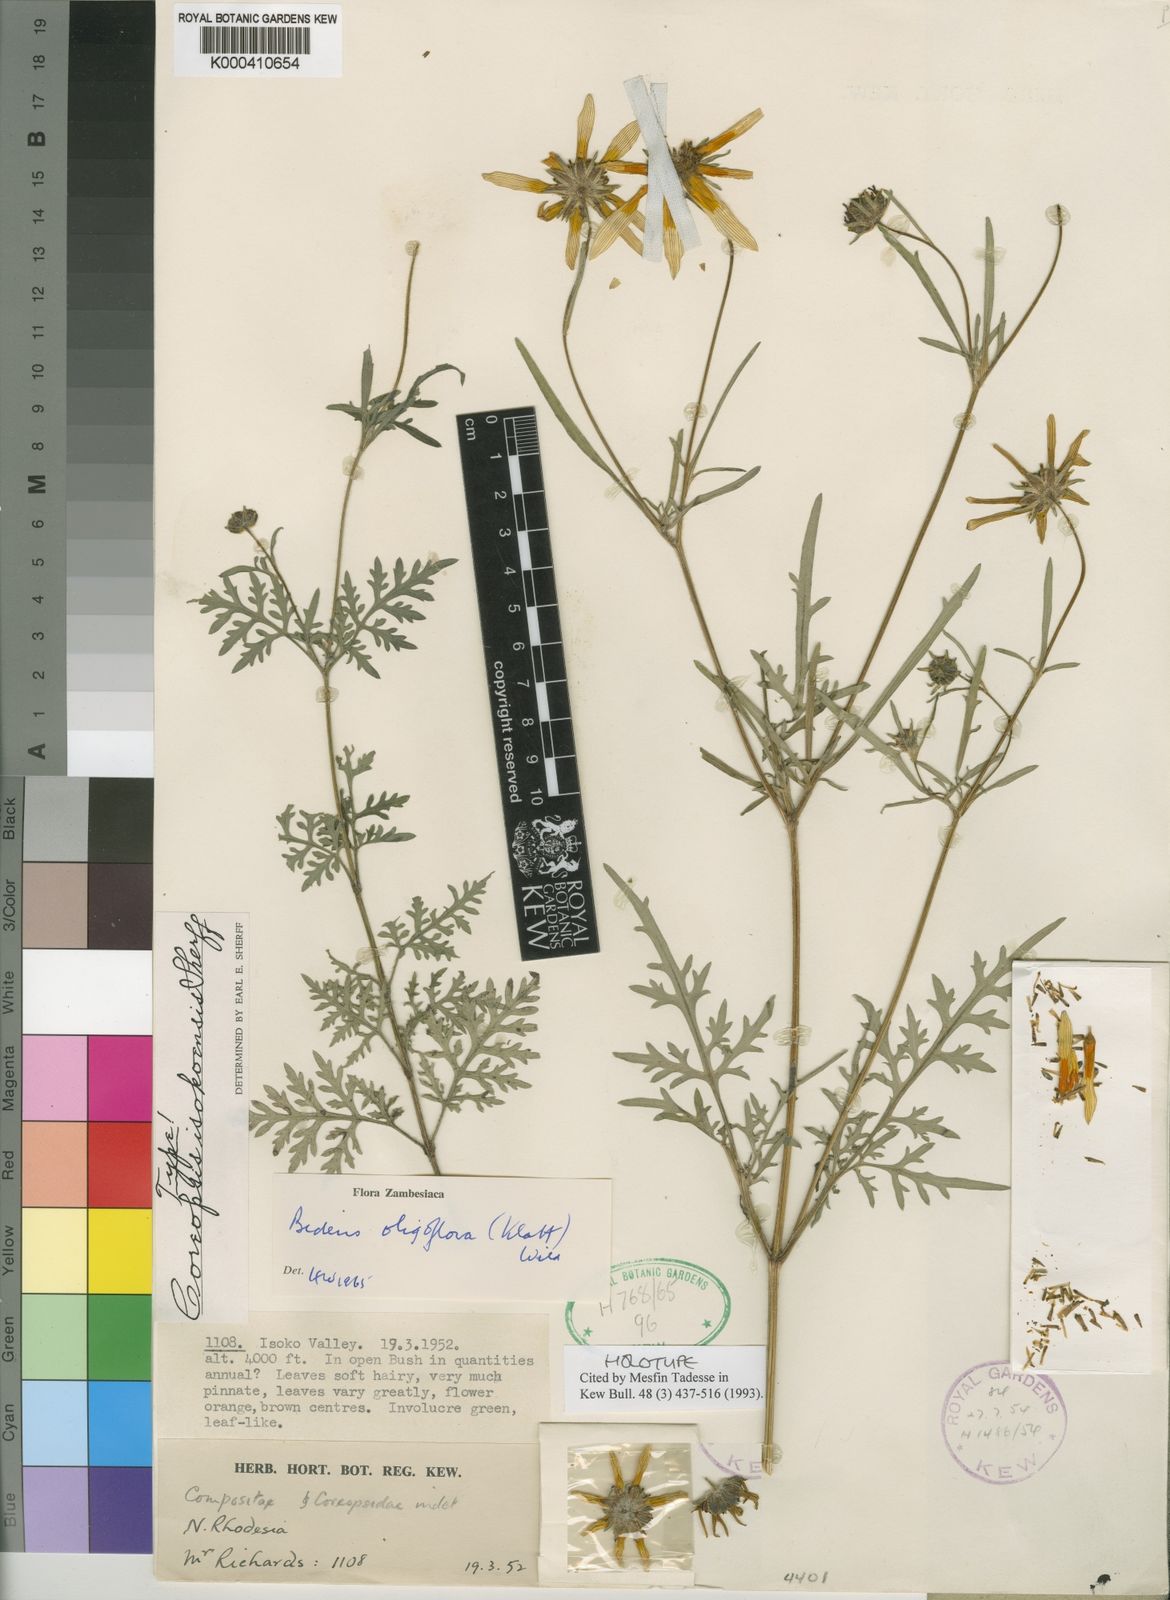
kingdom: Plantae
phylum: Tracheophyta
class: Magnoliopsida
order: Asterales
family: Asteraceae
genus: Bidens
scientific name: Bidens oligoflora
